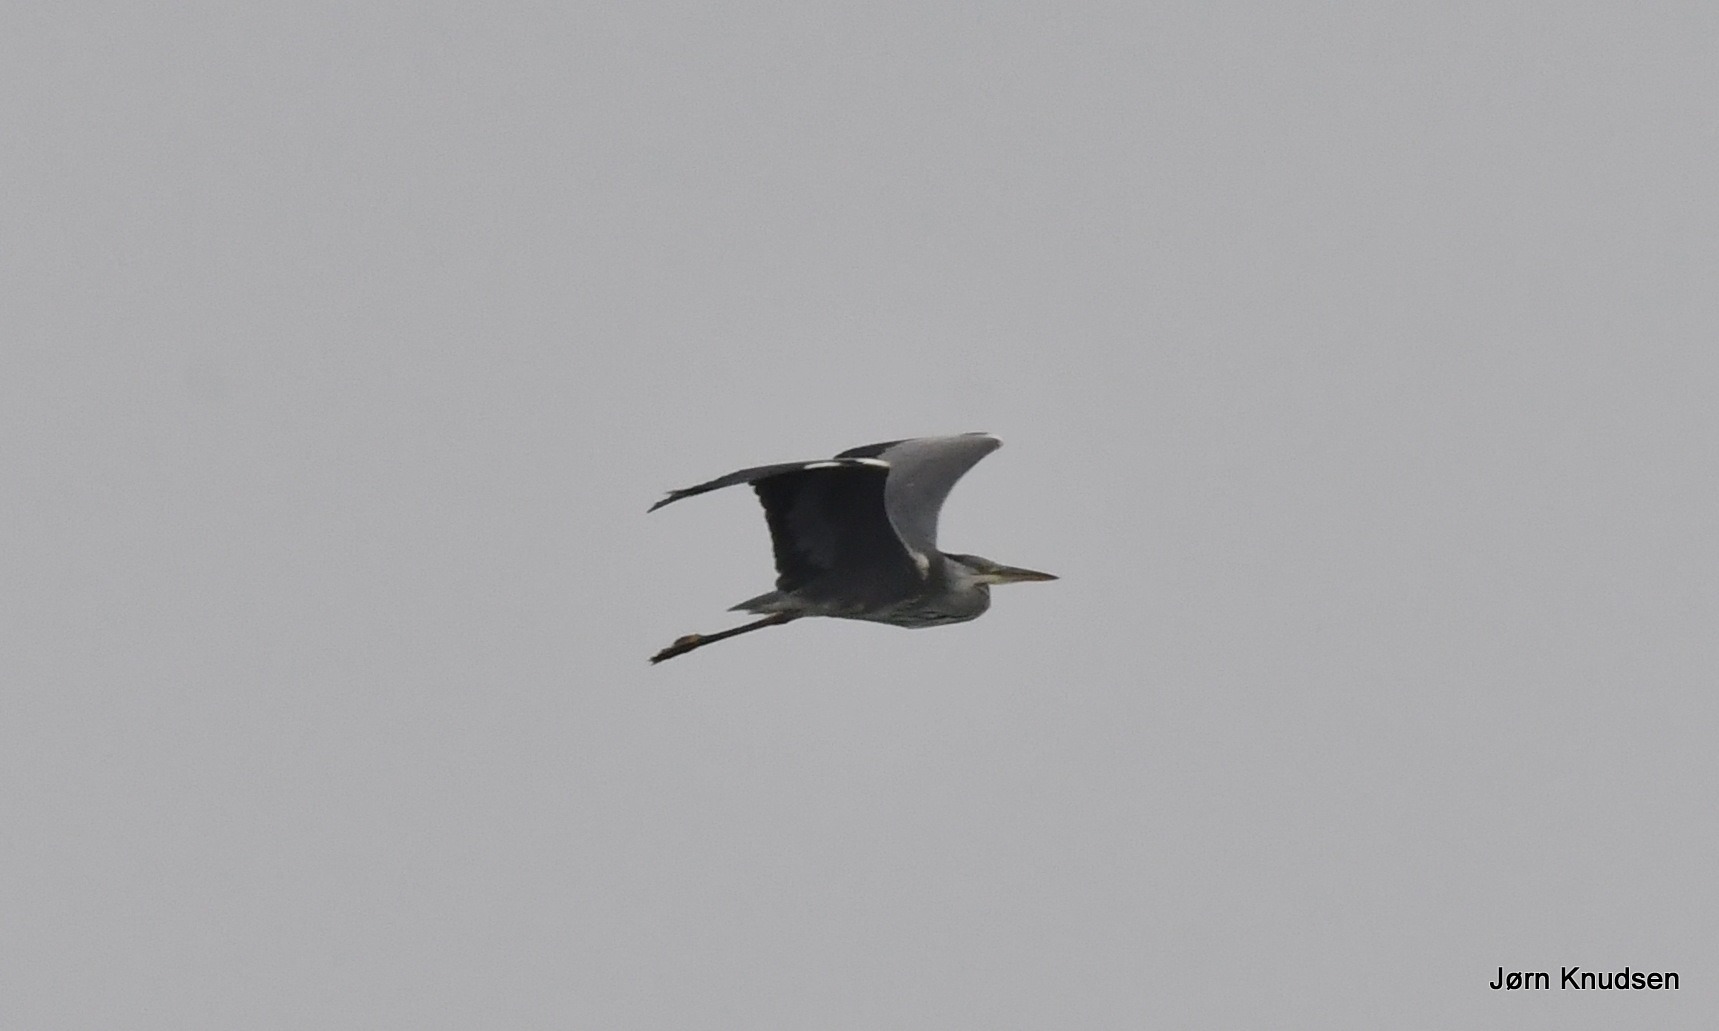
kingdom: Animalia
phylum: Chordata
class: Aves
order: Pelecaniformes
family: Ardeidae
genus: Ardea
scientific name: Ardea cinerea
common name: Fiskehejre
